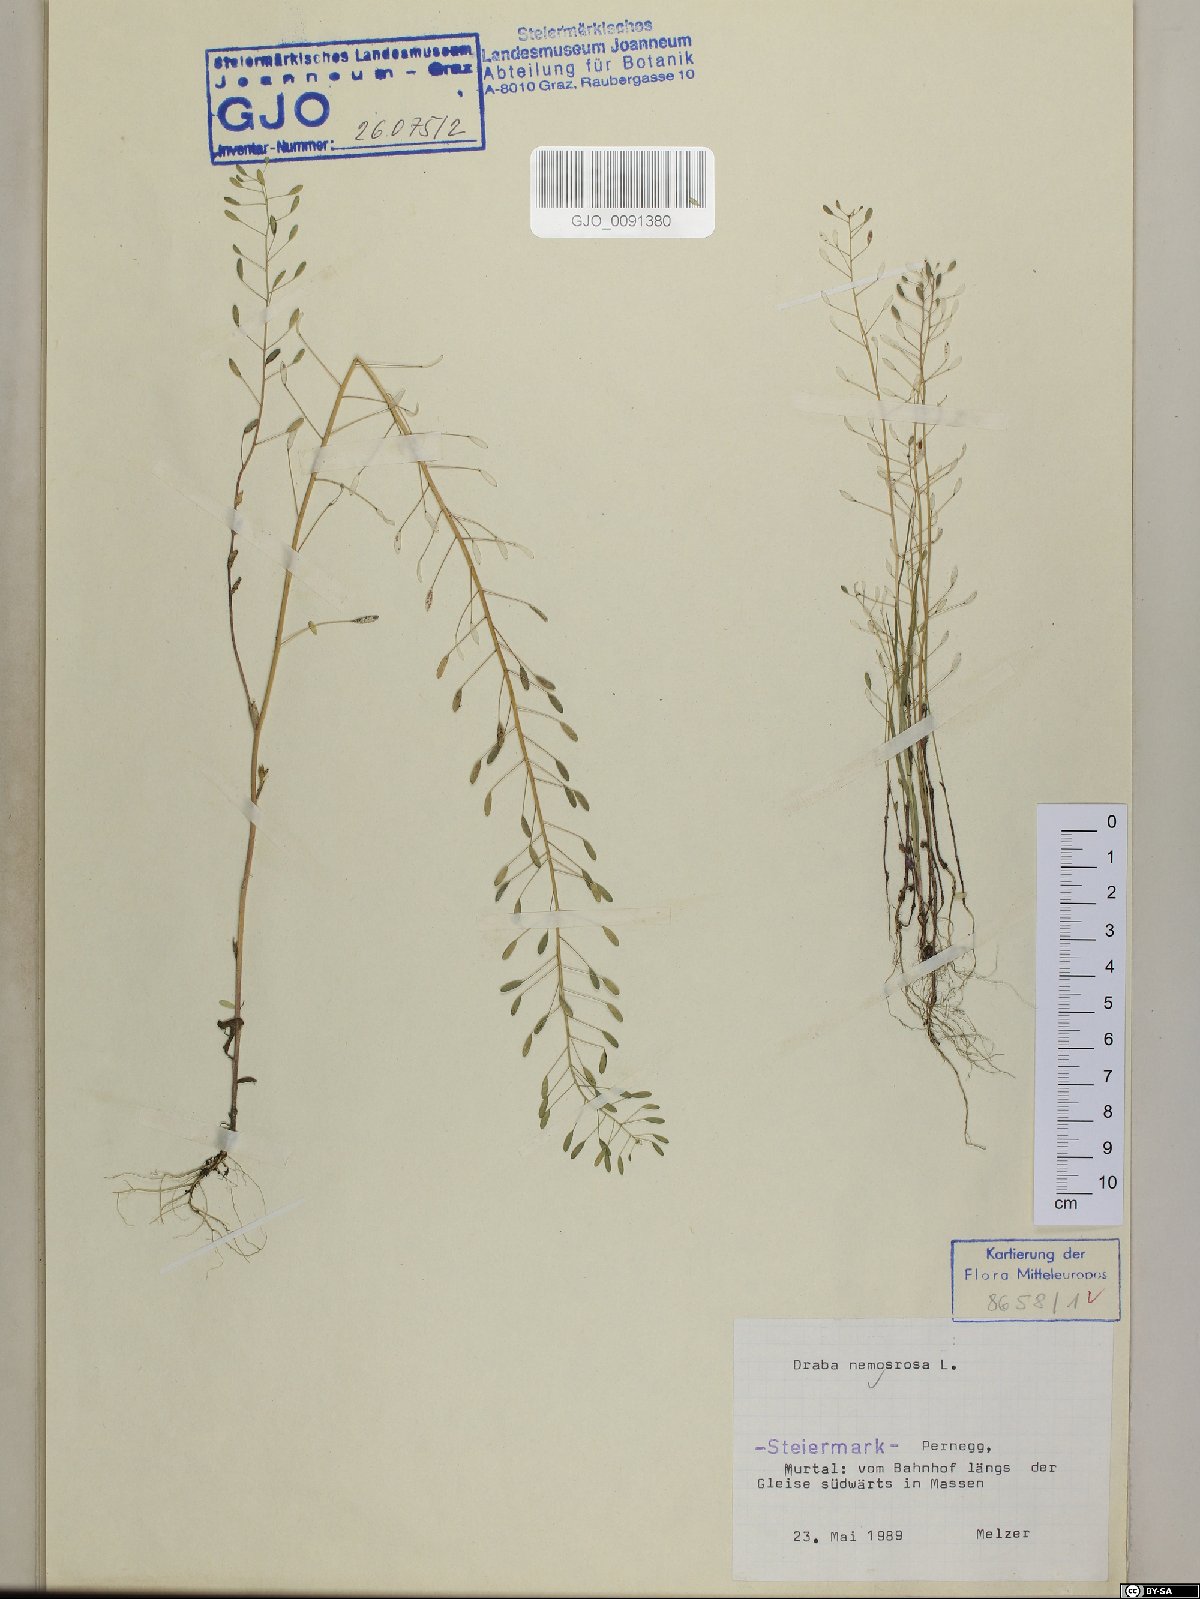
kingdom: Plantae
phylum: Tracheophyta
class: Magnoliopsida
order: Brassicales
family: Brassicaceae
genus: Draba
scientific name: Draba nemorosa
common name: Wood whitlow-grass
